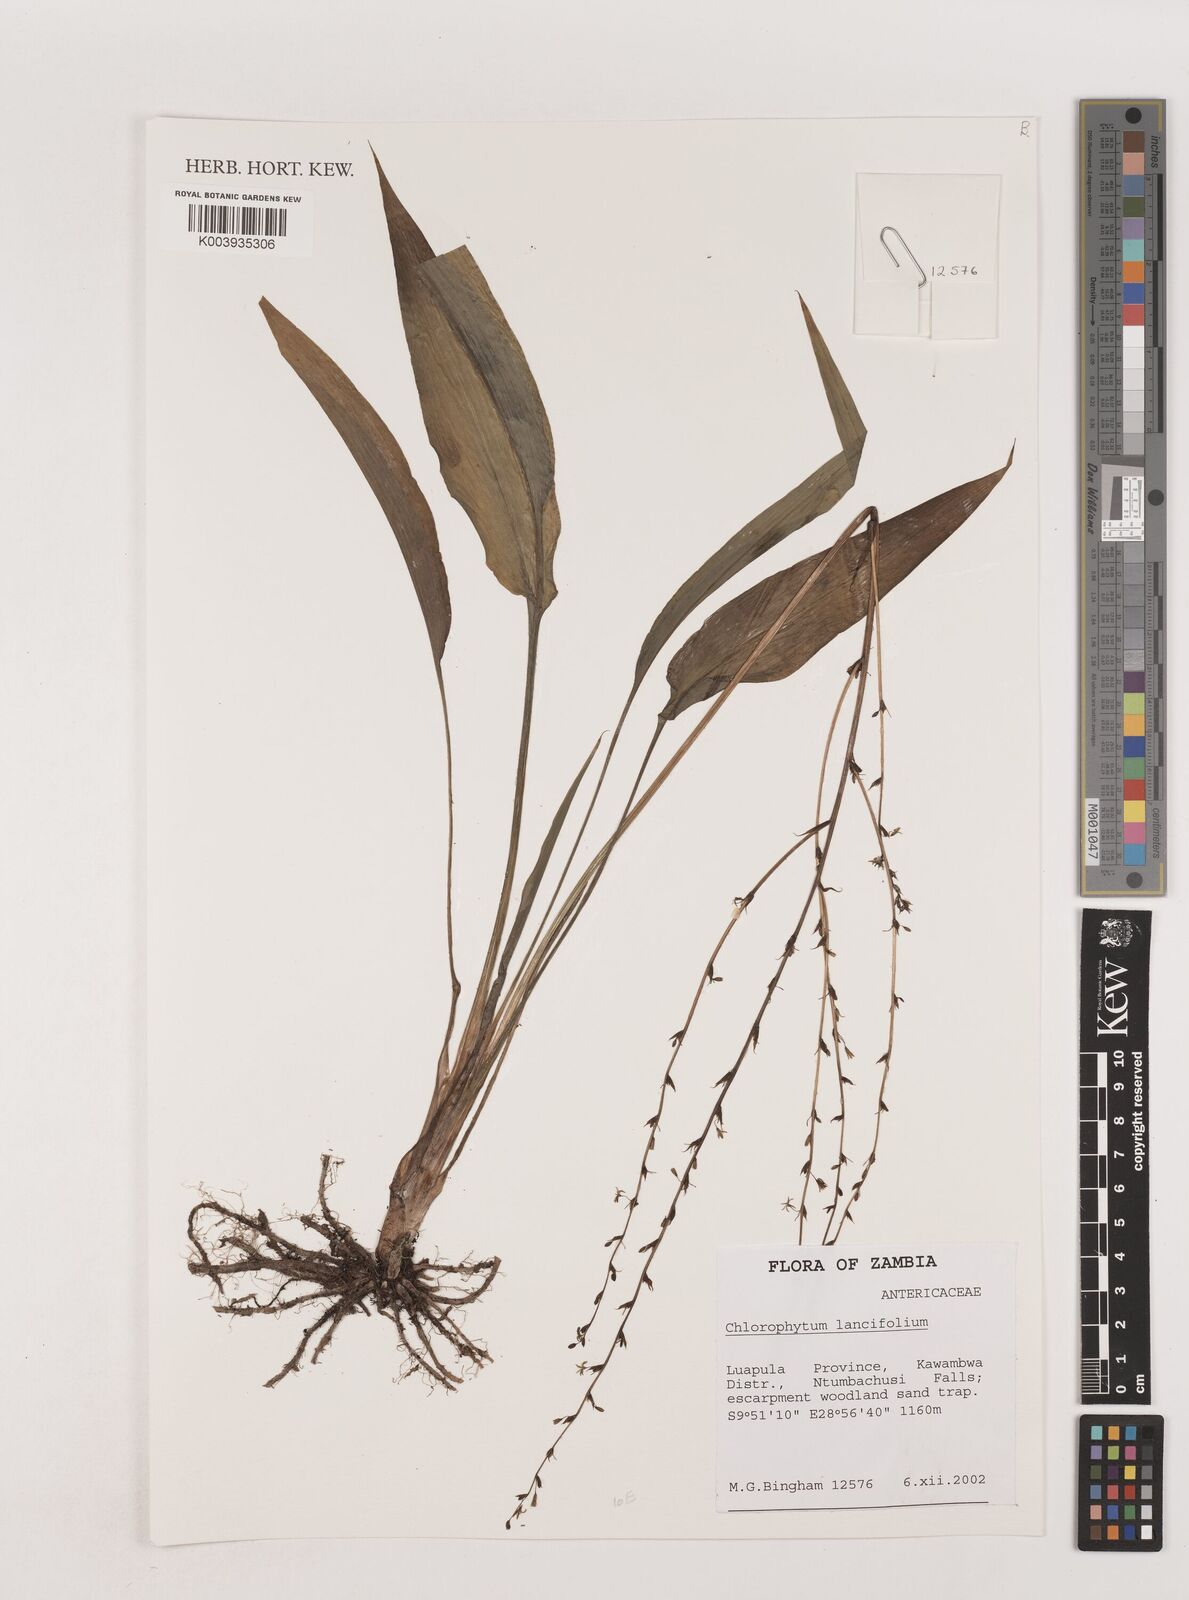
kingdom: Plantae
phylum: Tracheophyta
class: Liliopsida
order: Asparagales
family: Asparagaceae
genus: Chlorophytum
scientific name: Chlorophytum lancifolium
